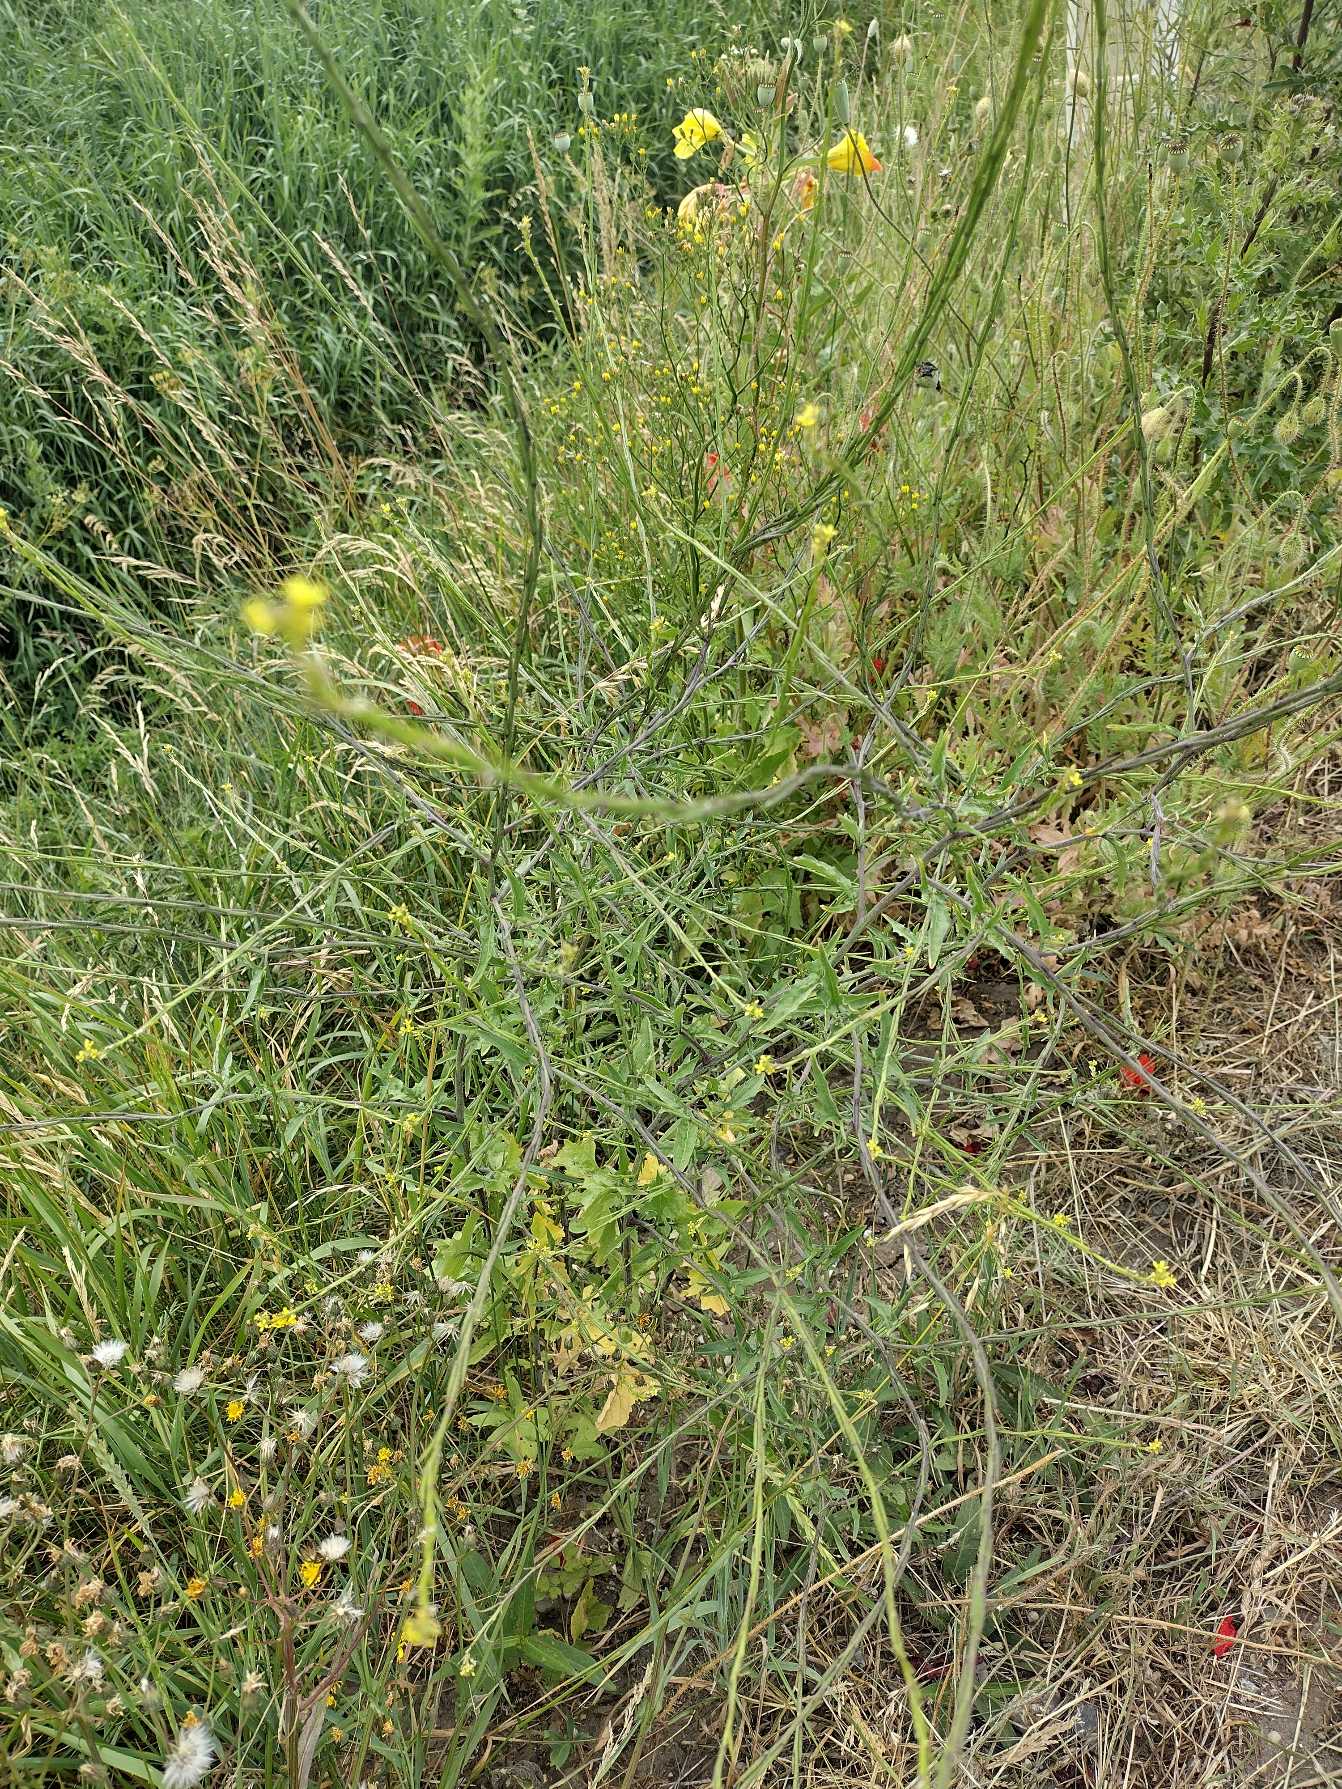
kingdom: Plantae
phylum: Tracheophyta
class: Magnoliopsida
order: Brassicales
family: Brassicaceae
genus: Sisymbrium
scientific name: Sisymbrium officinale
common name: Rank vejsennep
